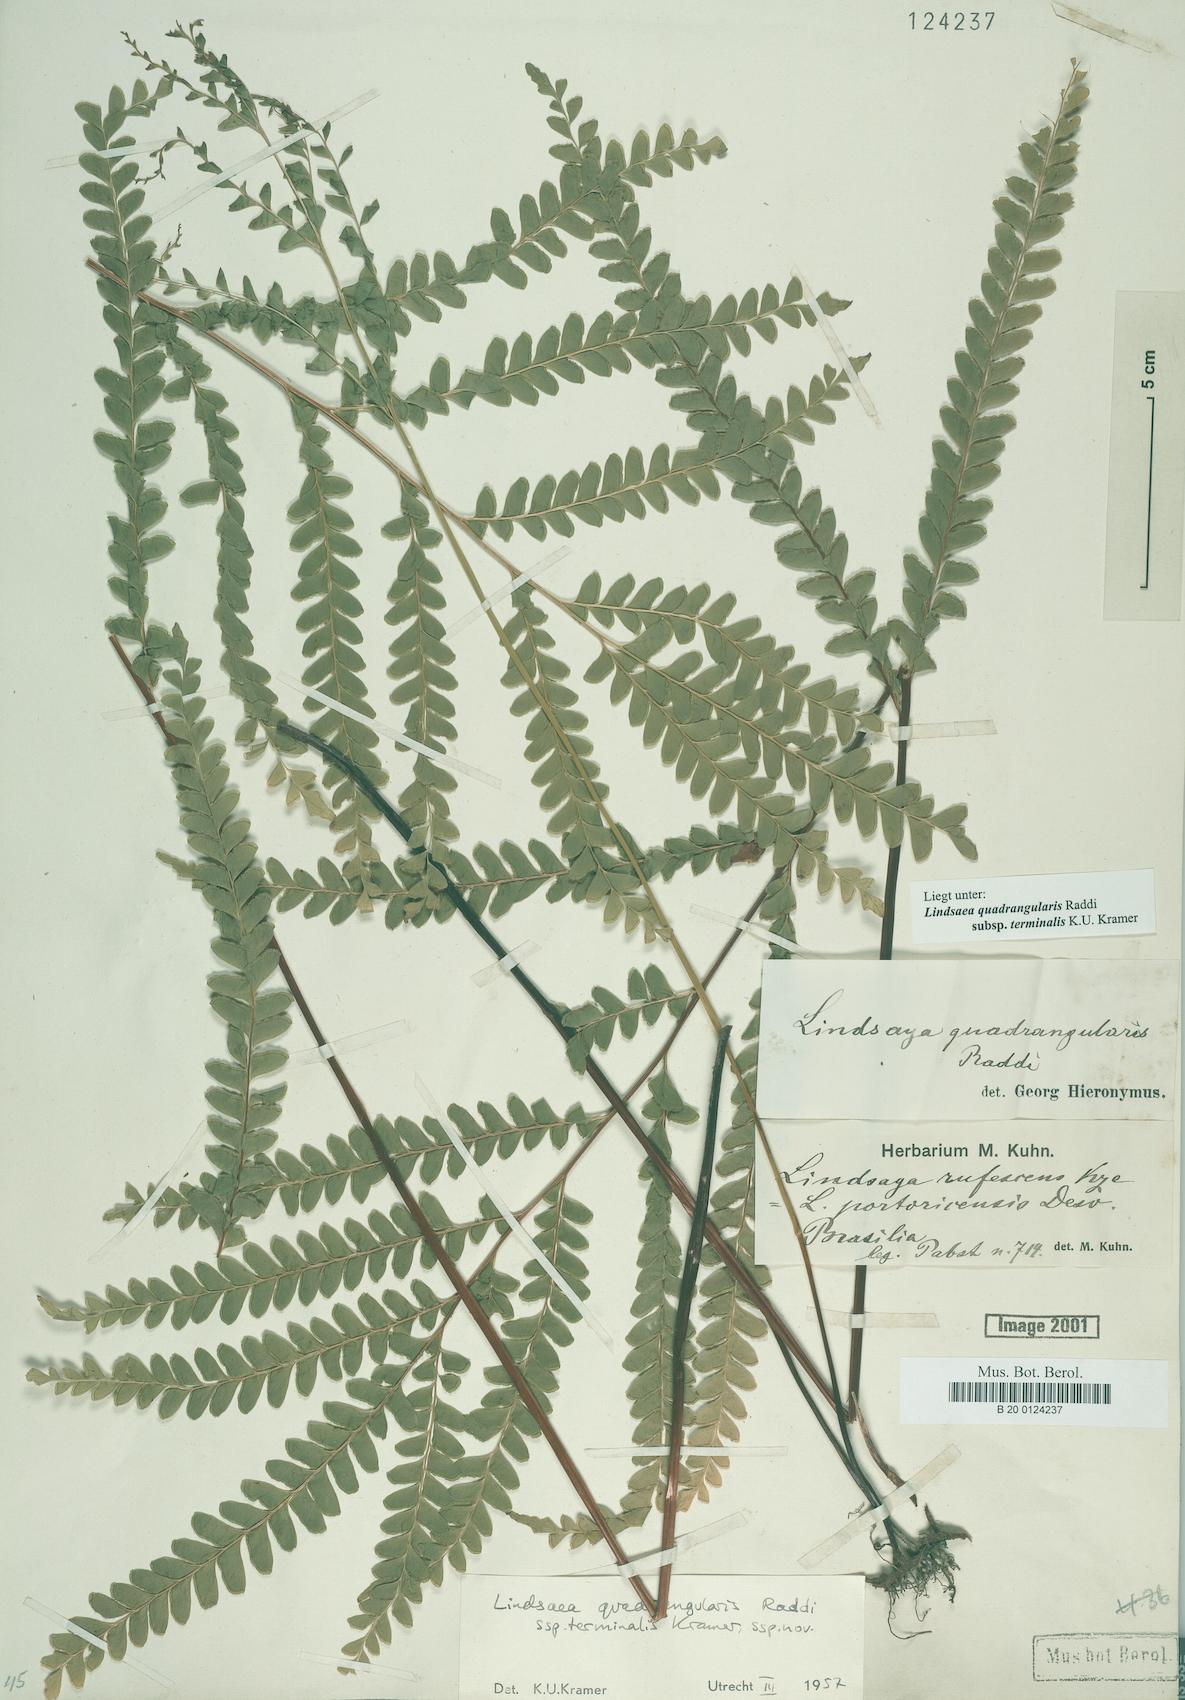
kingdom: Plantae
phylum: Tracheophyta
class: Polypodiopsida
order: Polypodiales
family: Lindsaeaceae
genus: Lindsaea
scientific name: Lindsaea terminalis
